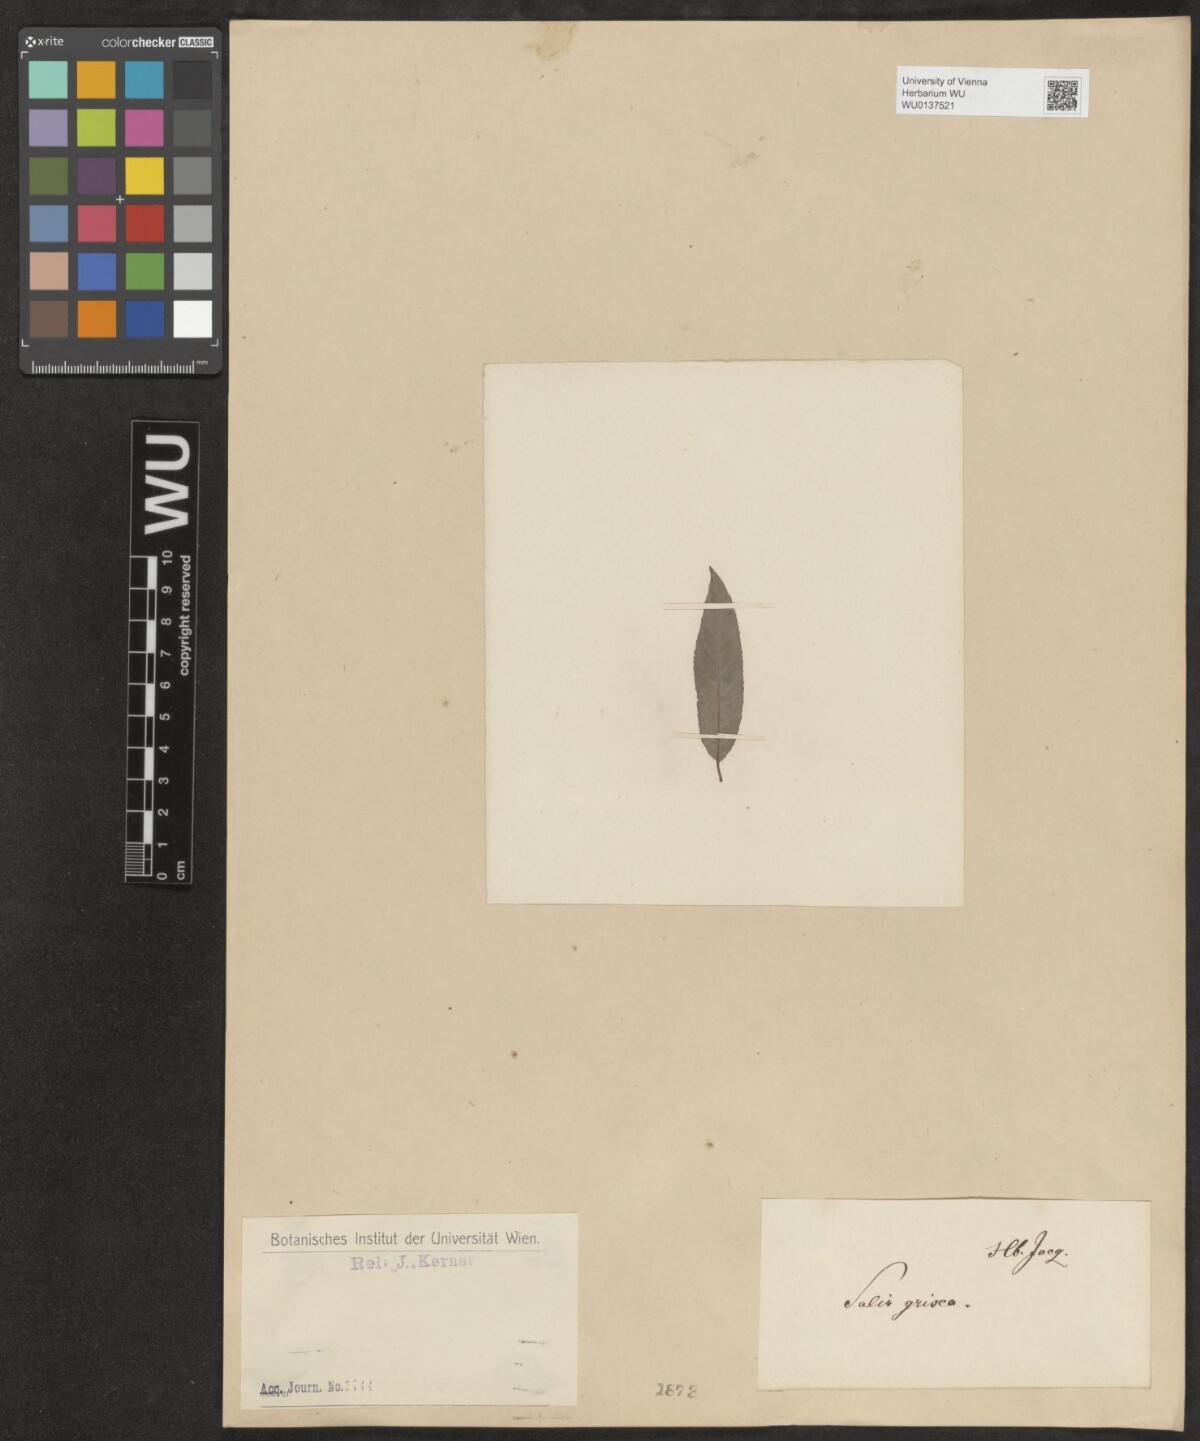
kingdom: Plantae
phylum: Tracheophyta
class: Magnoliopsida
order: Malpighiales
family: Salicaceae
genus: Salix
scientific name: Salix sericea
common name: Silky willow
